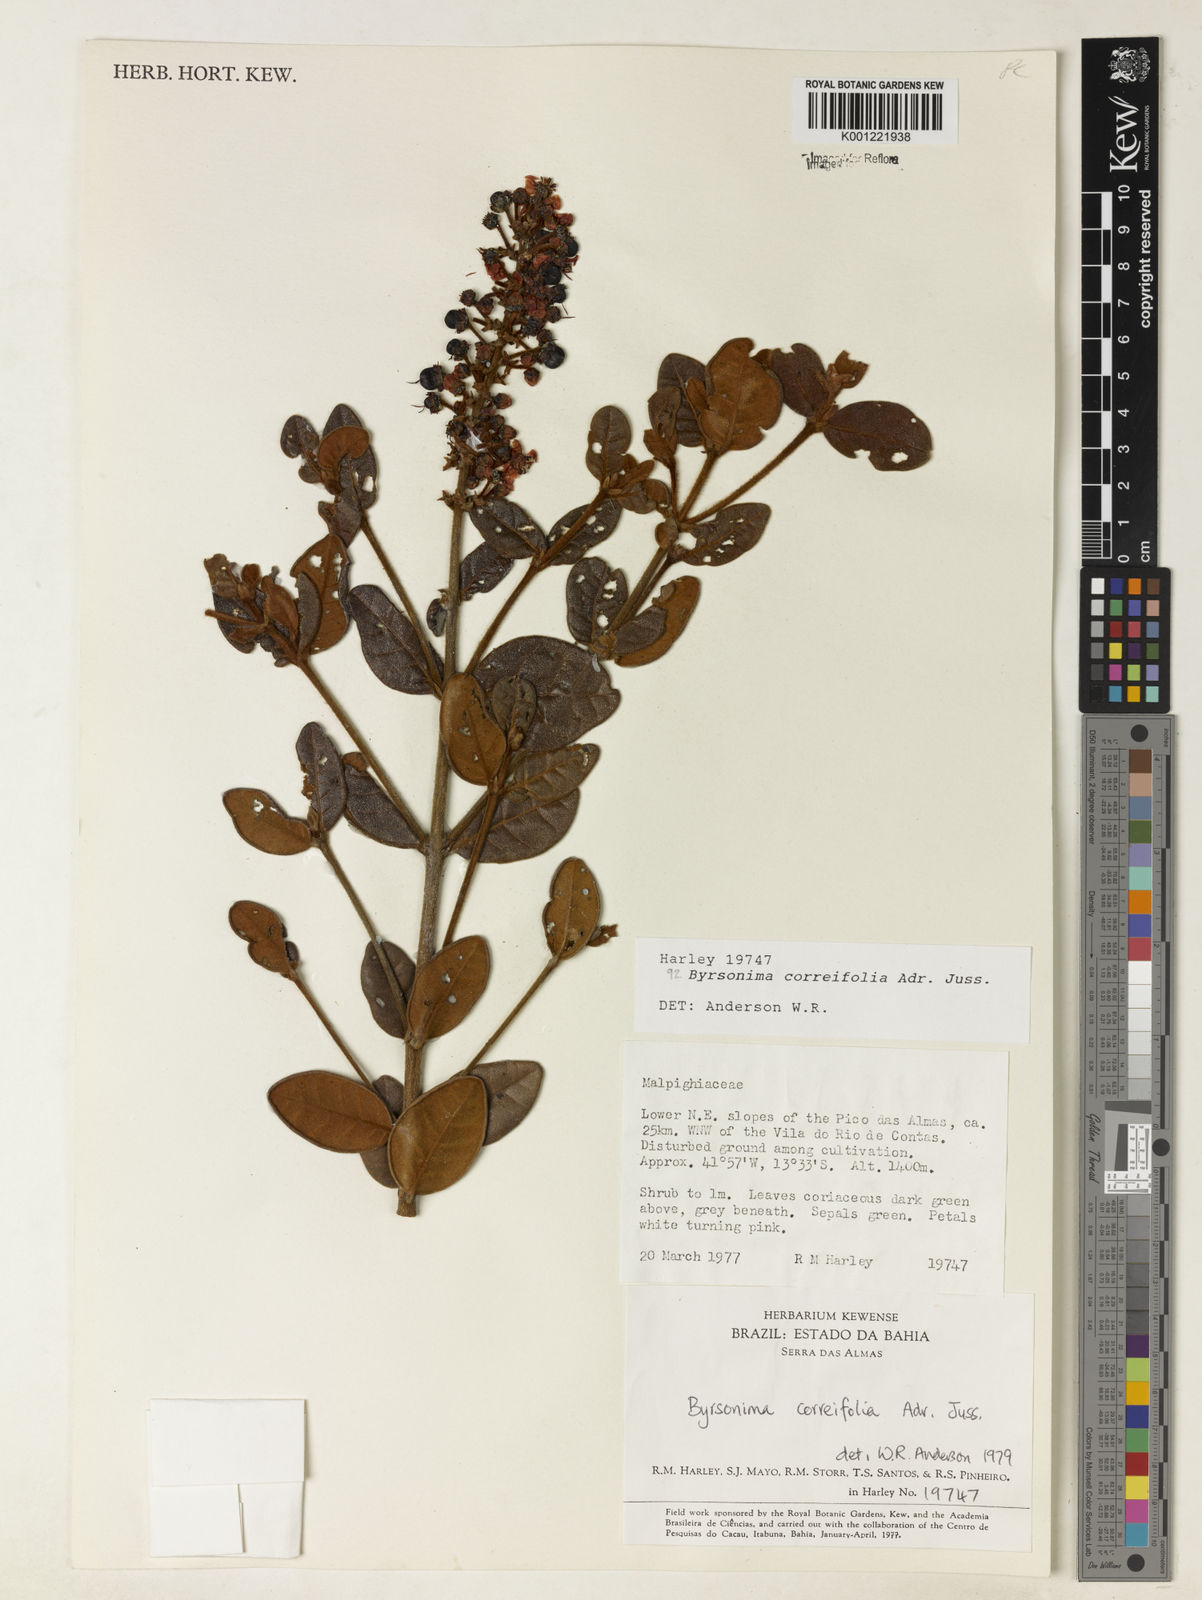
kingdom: Plantae
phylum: Tracheophyta
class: Magnoliopsida
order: Malpighiales
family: Malpighiaceae
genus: Byrsonima
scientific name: Byrsonima correifolia
